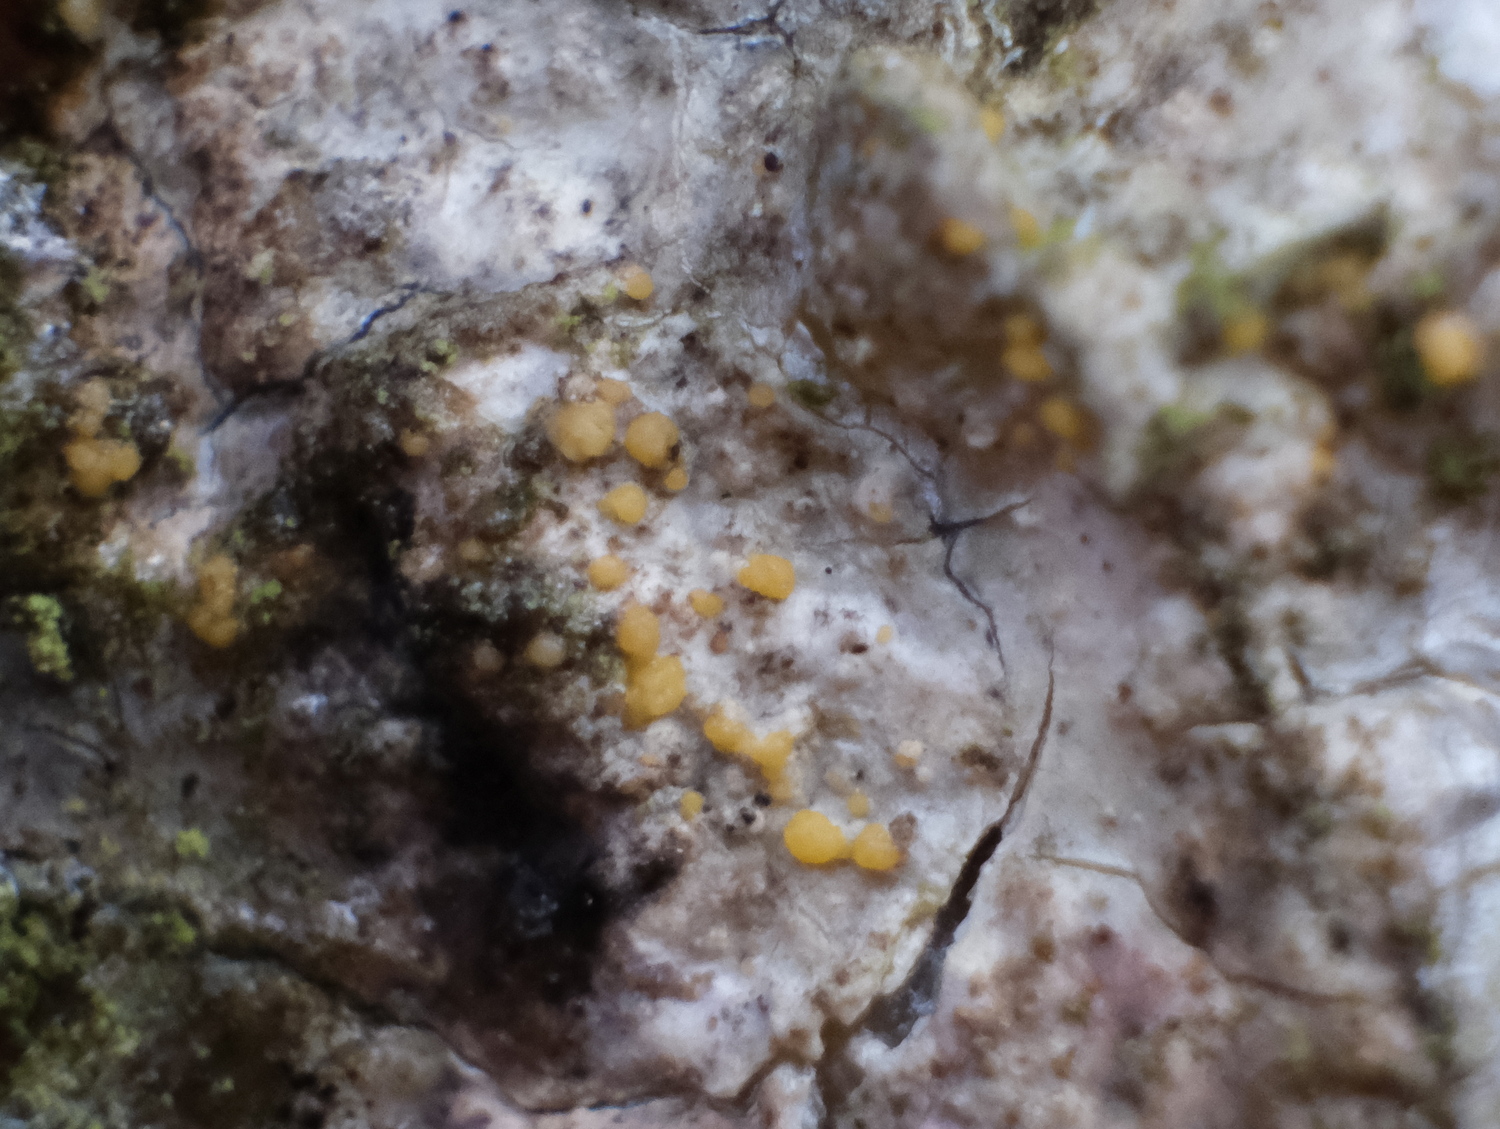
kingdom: Fungi
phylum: Ascomycota
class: Sareomycetes
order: Sareales
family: Sareaceae
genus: Sarea
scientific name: Sarea resinae
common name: orangegul harpiksskive
